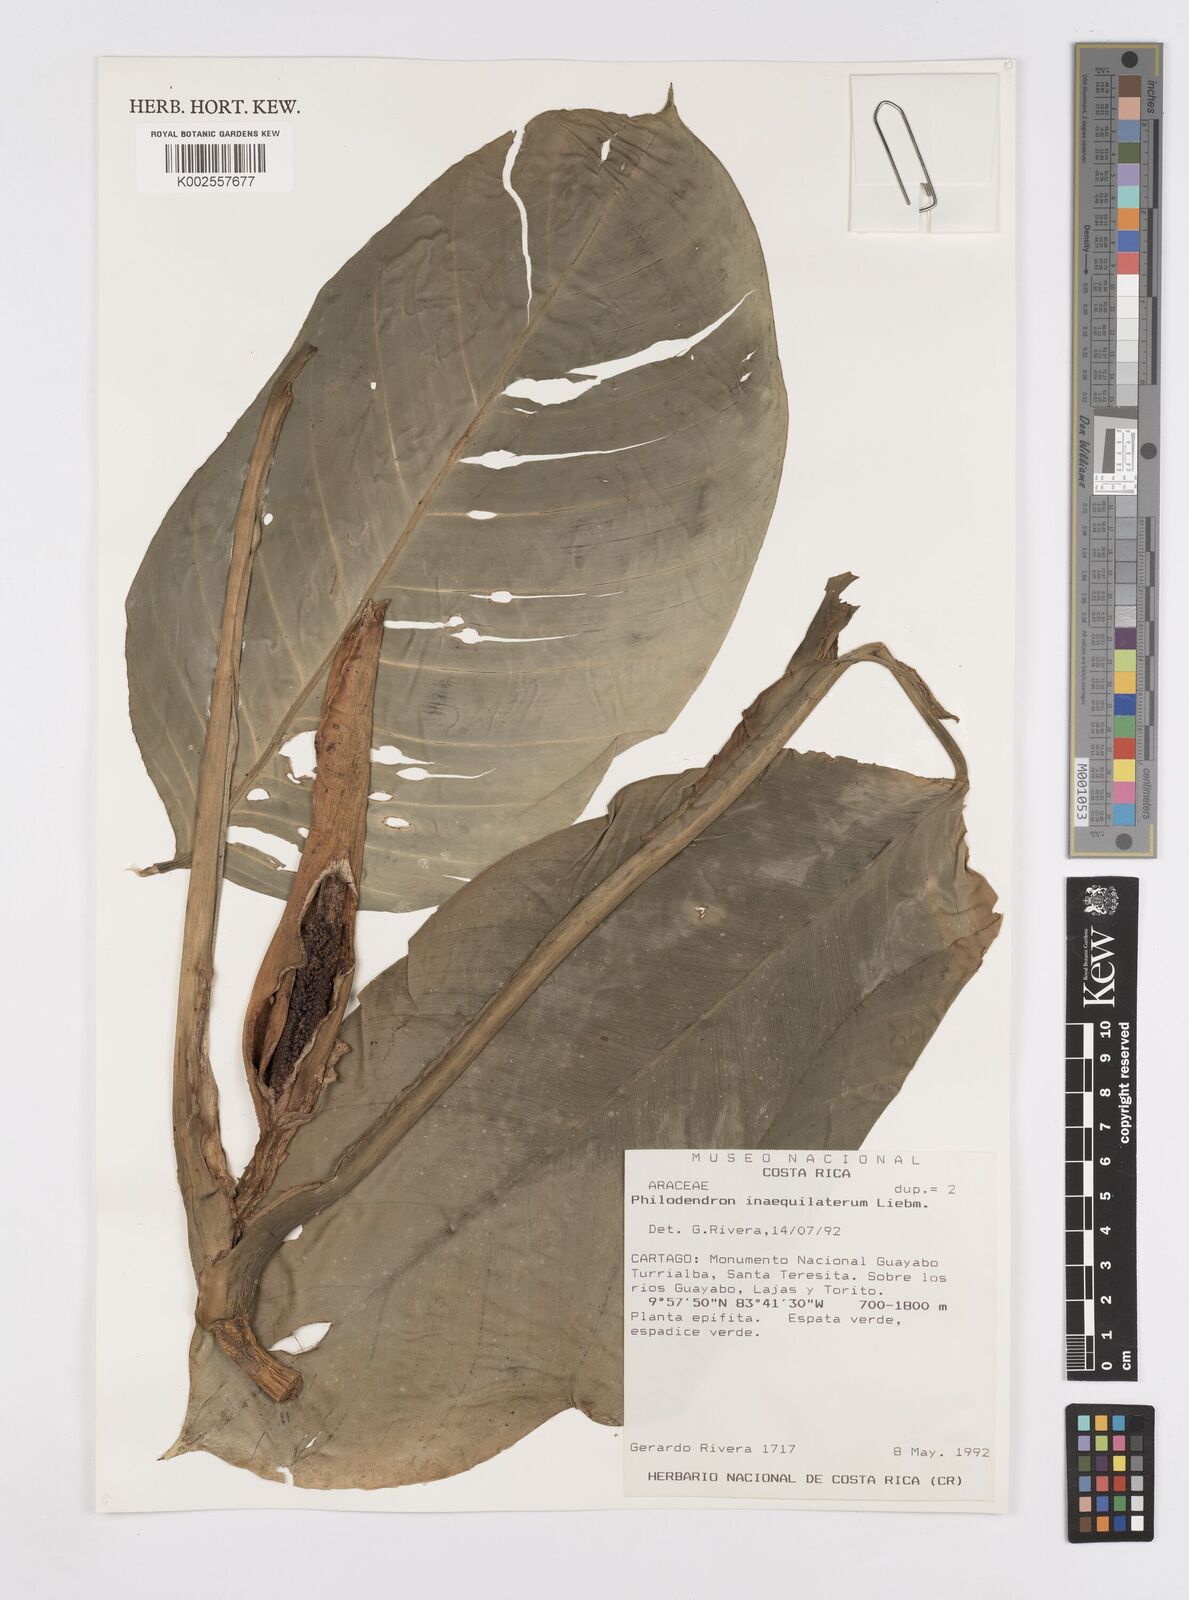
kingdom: Plantae
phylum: Tracheophyta
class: Liliopsida
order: Alismatales
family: Araceae
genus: Philodendron
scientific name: Philodendron inaequilaterum
